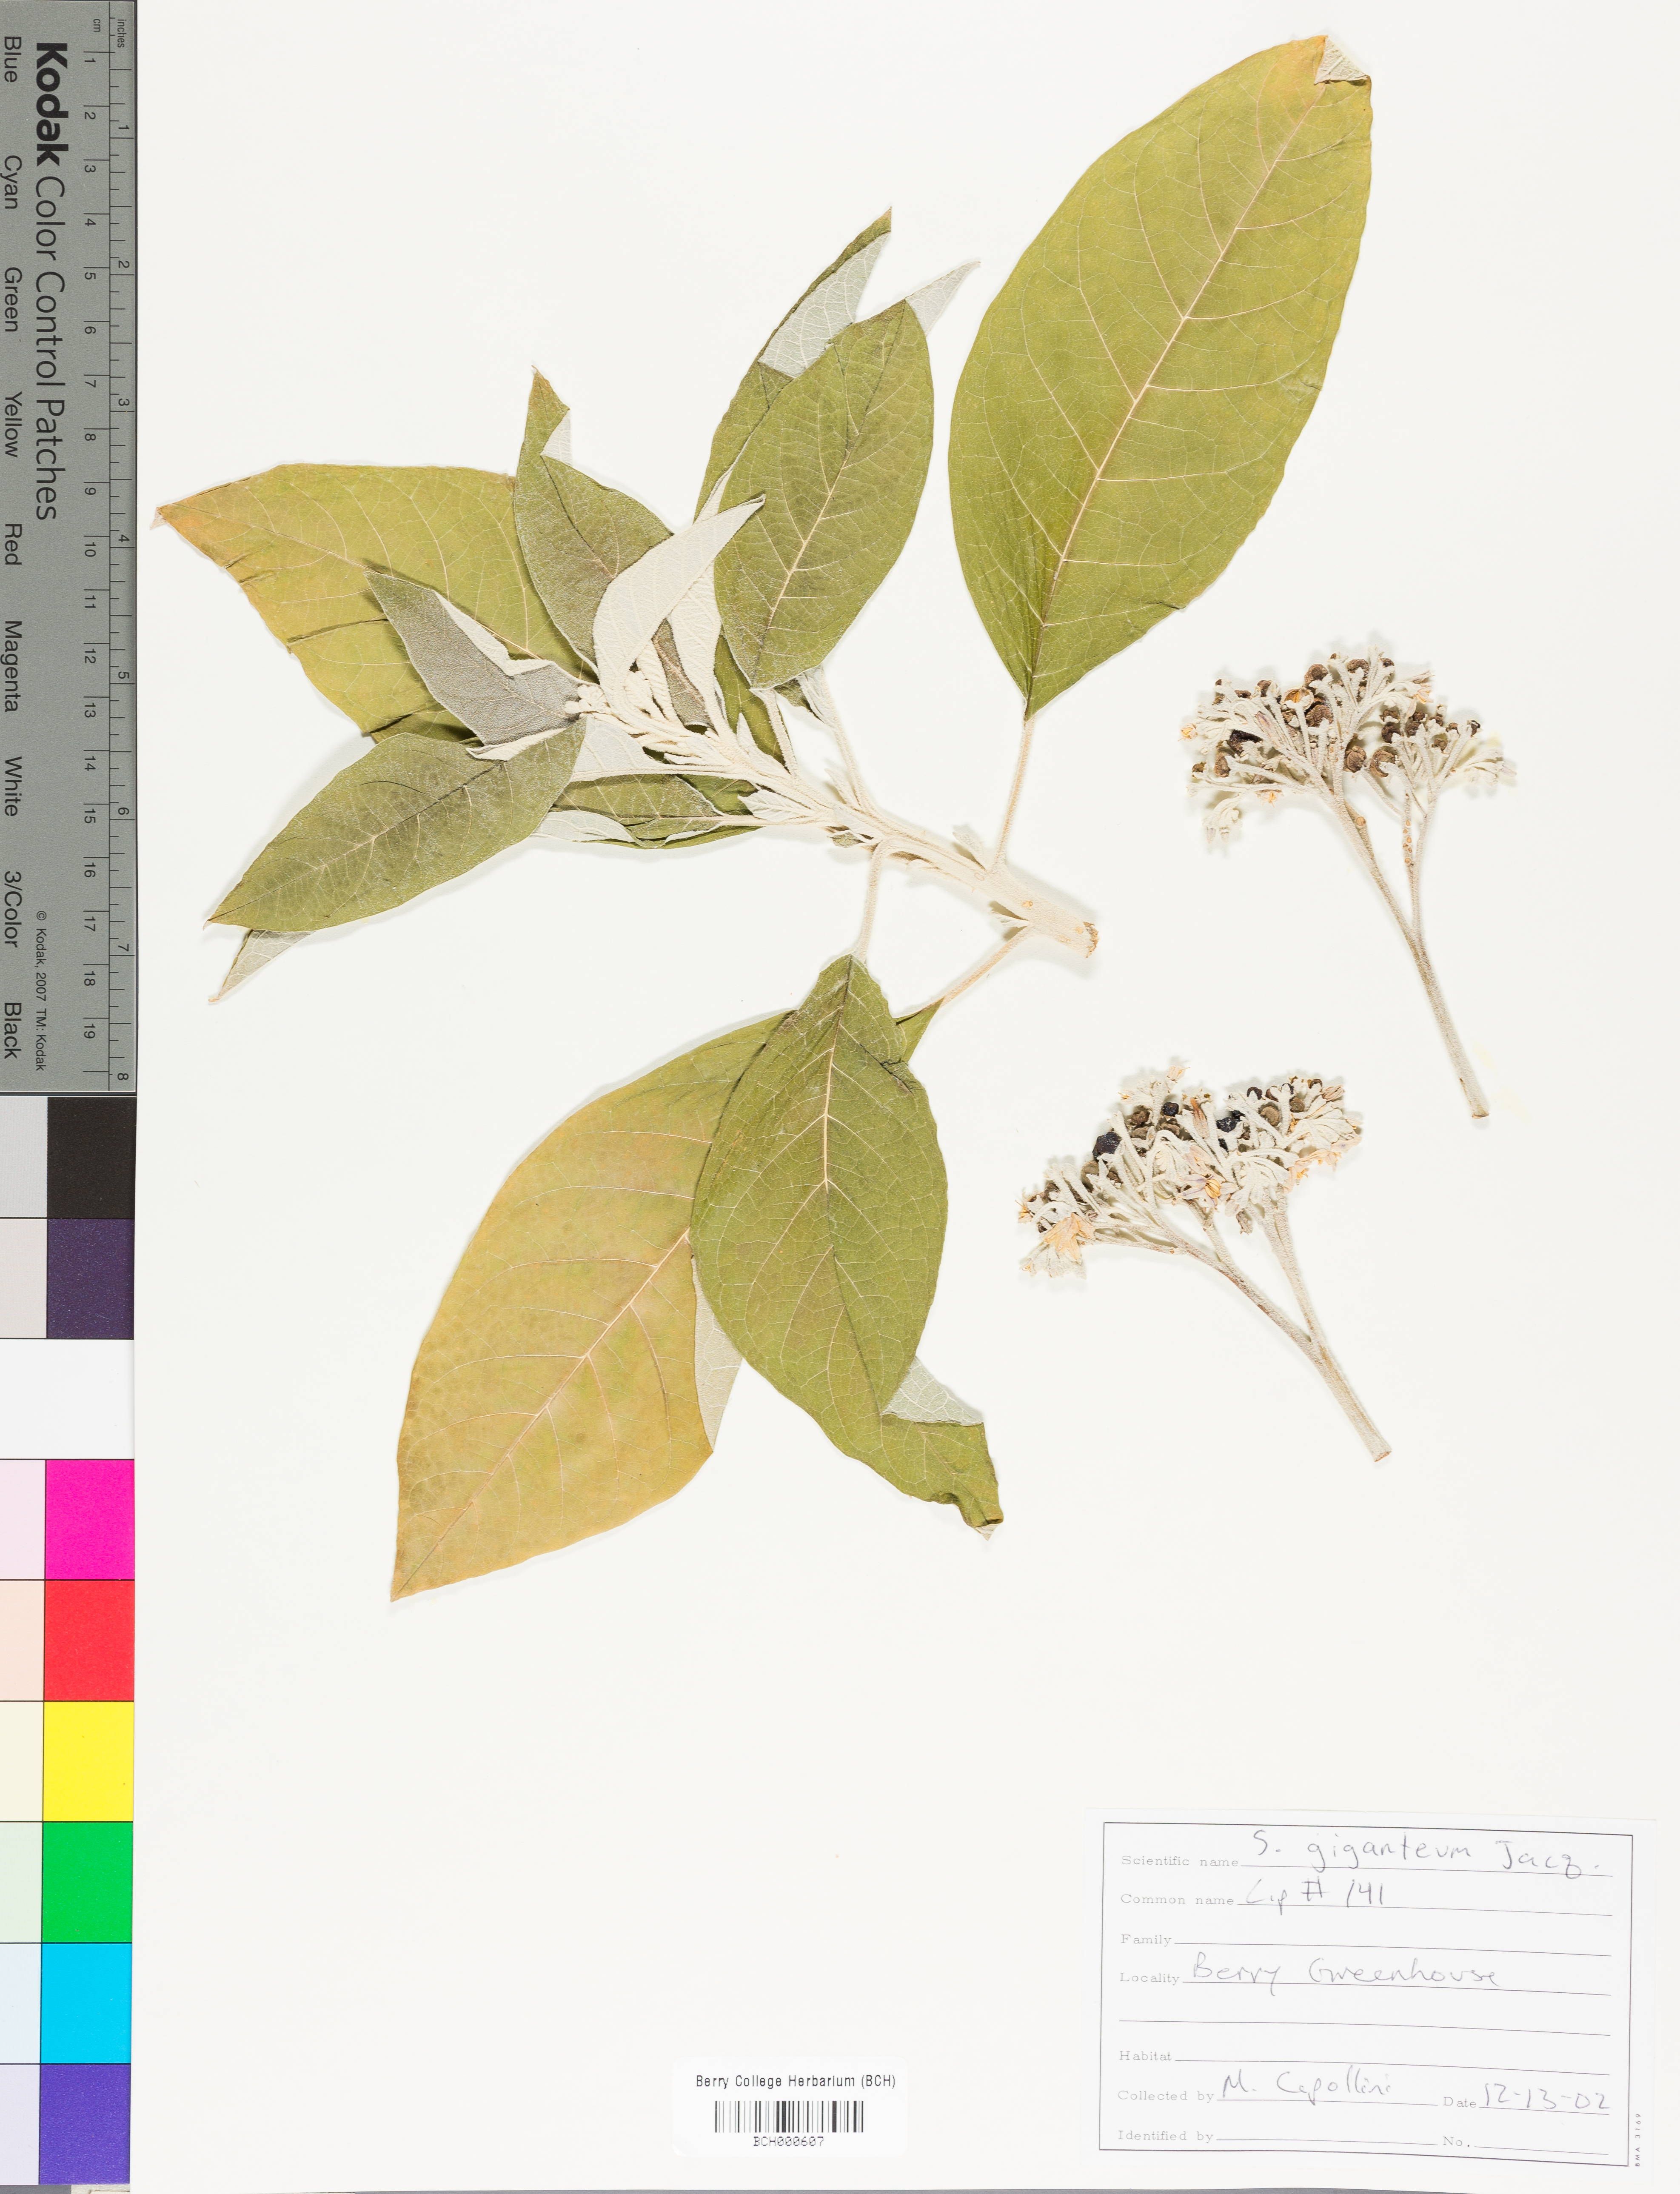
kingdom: Plantae
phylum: Tracheophyta
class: Magnoliopsida
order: Solanales
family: Solanaceae
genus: Solanum
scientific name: Solanum giganteum
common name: Healing-leaf-tree
